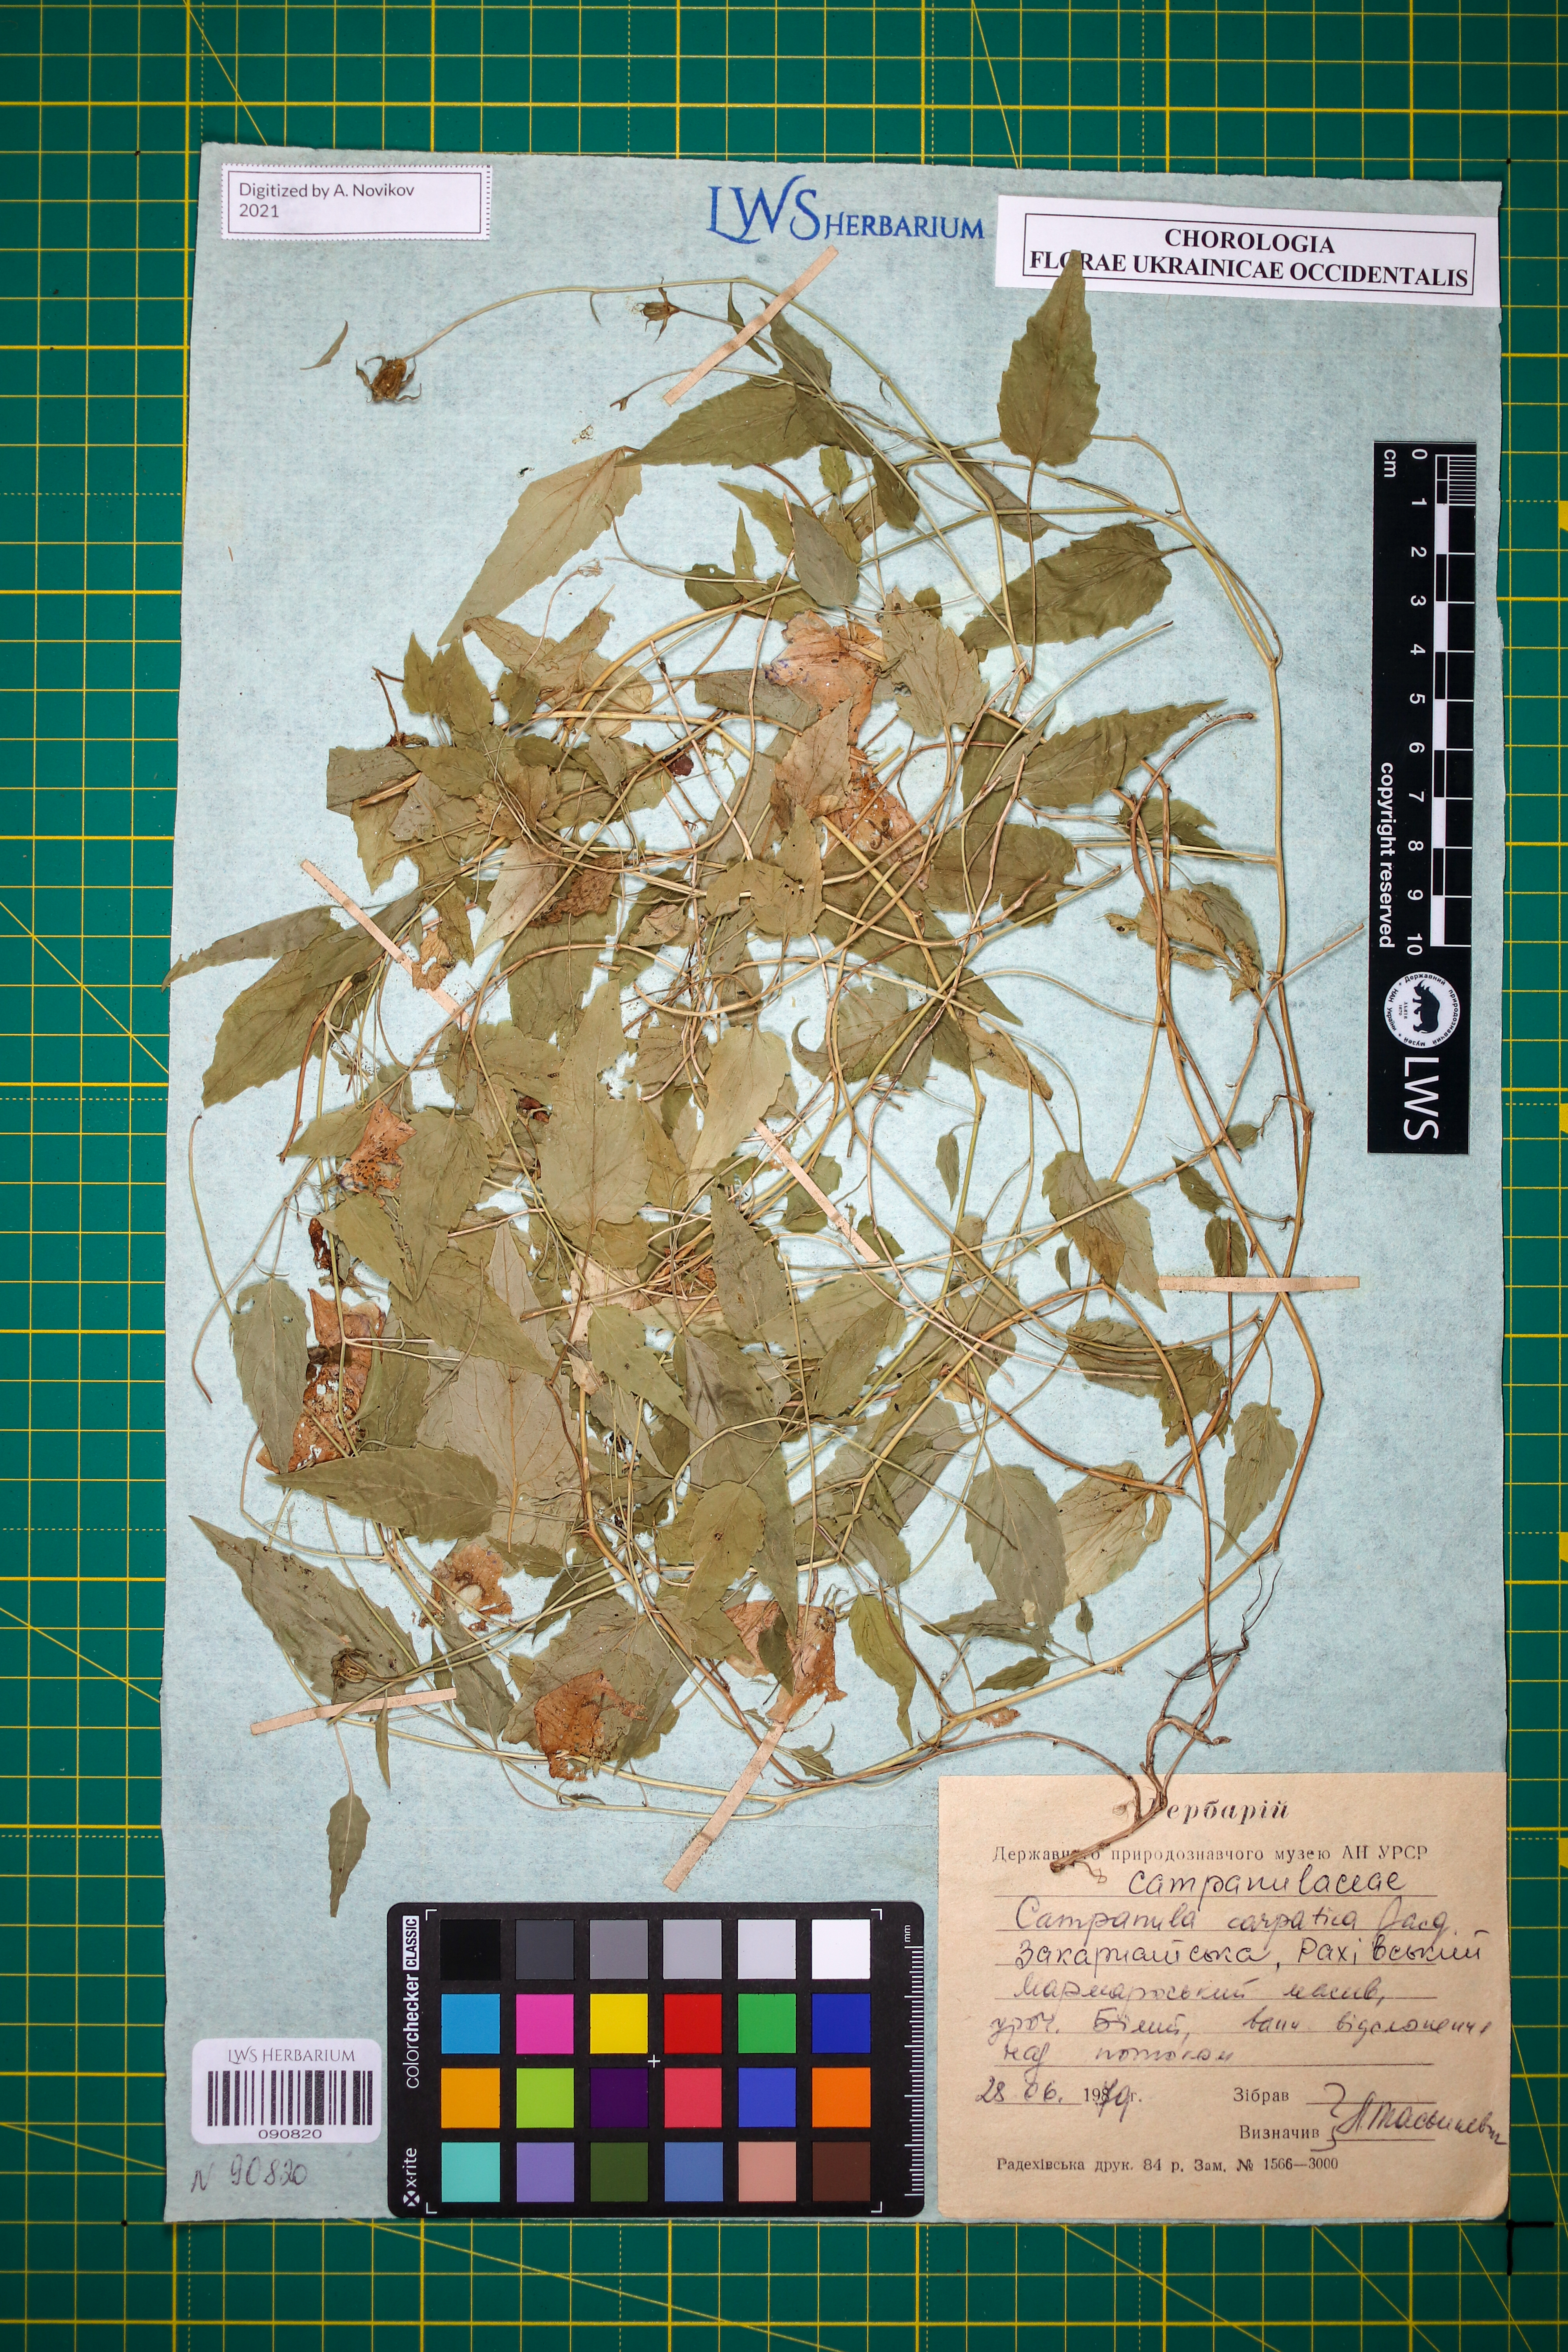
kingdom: Plantae
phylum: Tracheophyta
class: Magnoliopsida
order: Asterales
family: Campanulaceae
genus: Campanula
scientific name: Campanula carpatica
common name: Tussock bellflower
